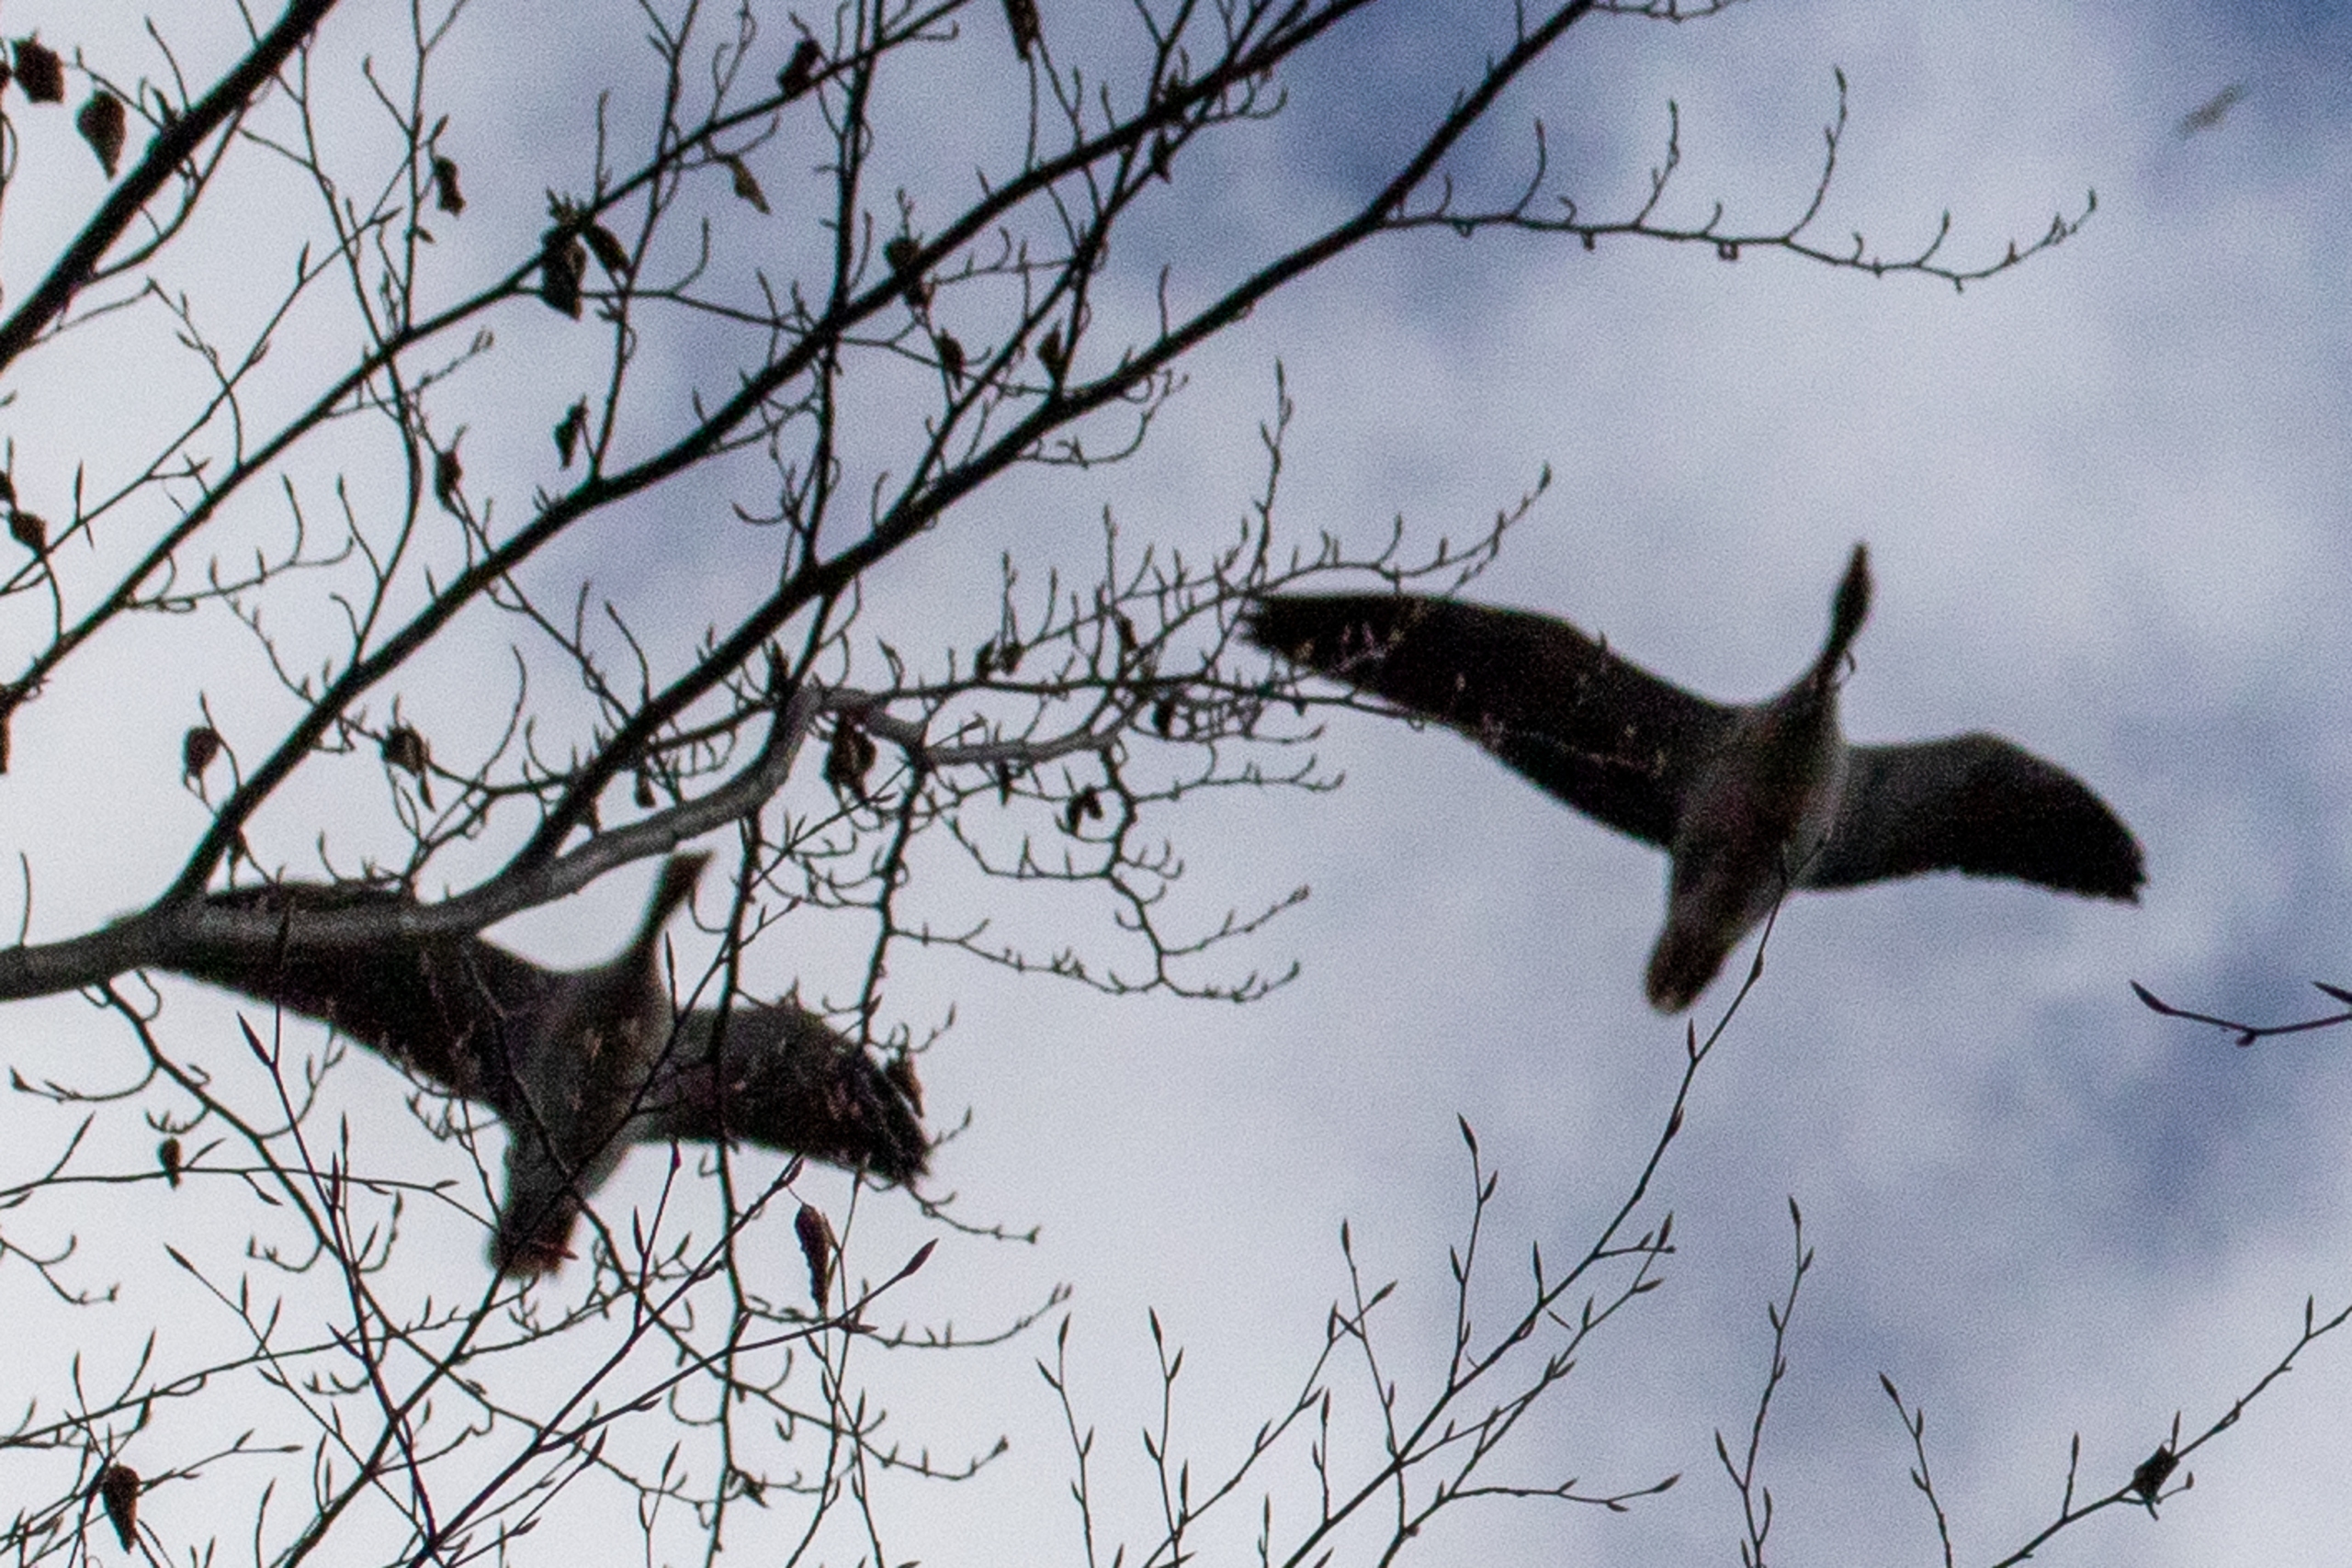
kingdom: Animalia
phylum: Chordata
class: Aves
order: Anseriformes
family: Anatidae
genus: Anser
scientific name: Anser anser
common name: Grågås
